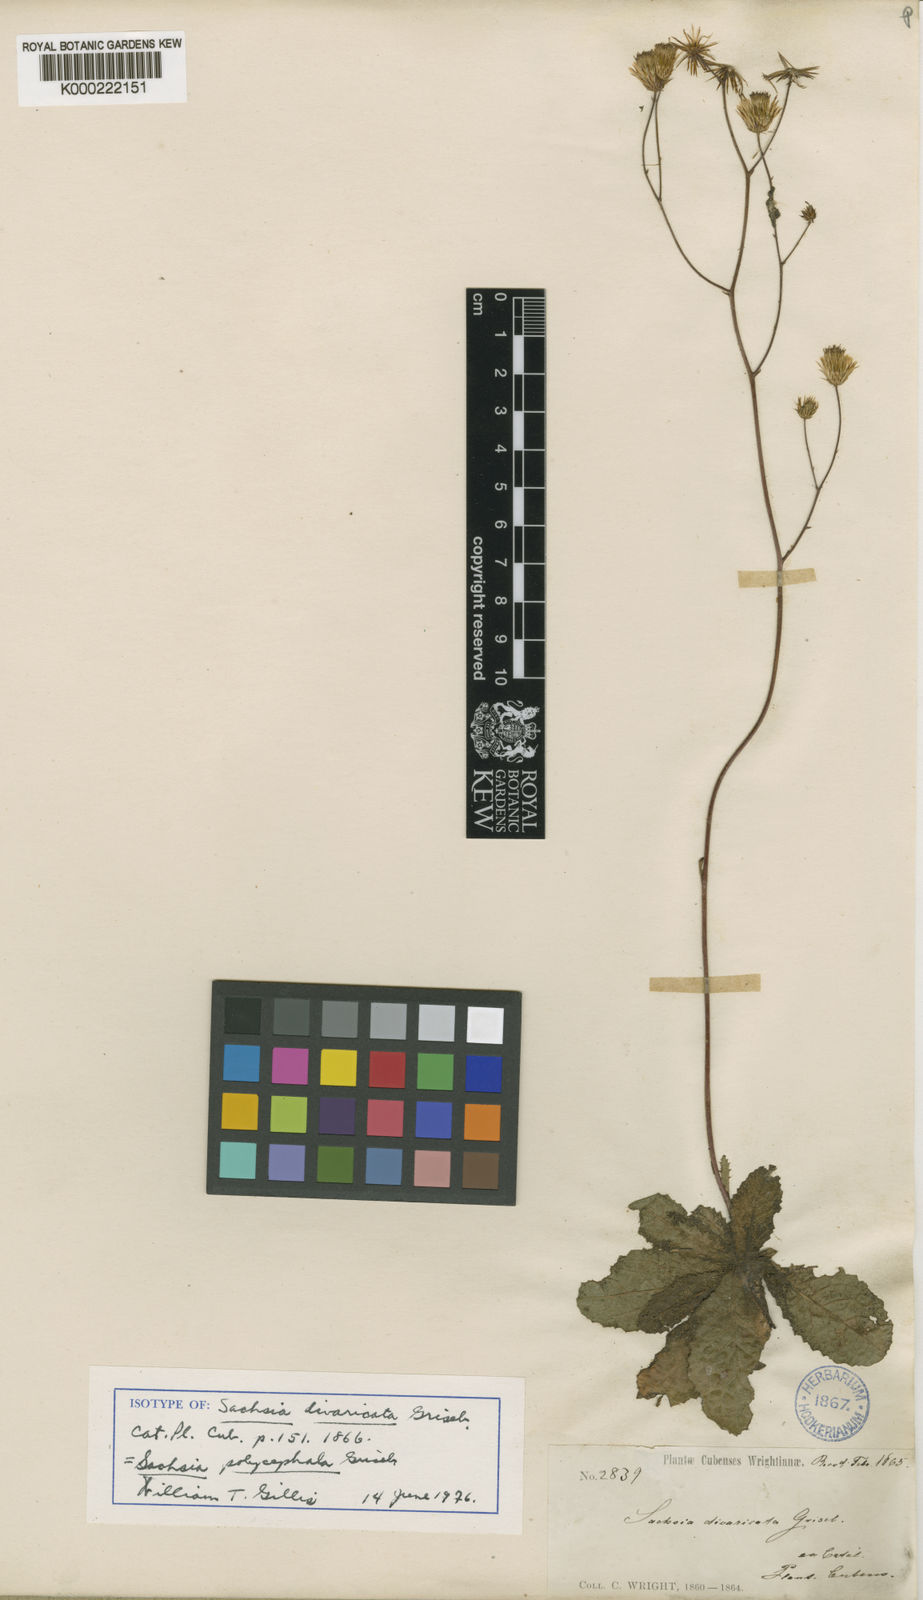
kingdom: Plantae
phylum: Tracheophyta
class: Magnoliopsida
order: Asterales
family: Asteraceae
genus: Sachsia
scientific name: Sachsia polycephala
